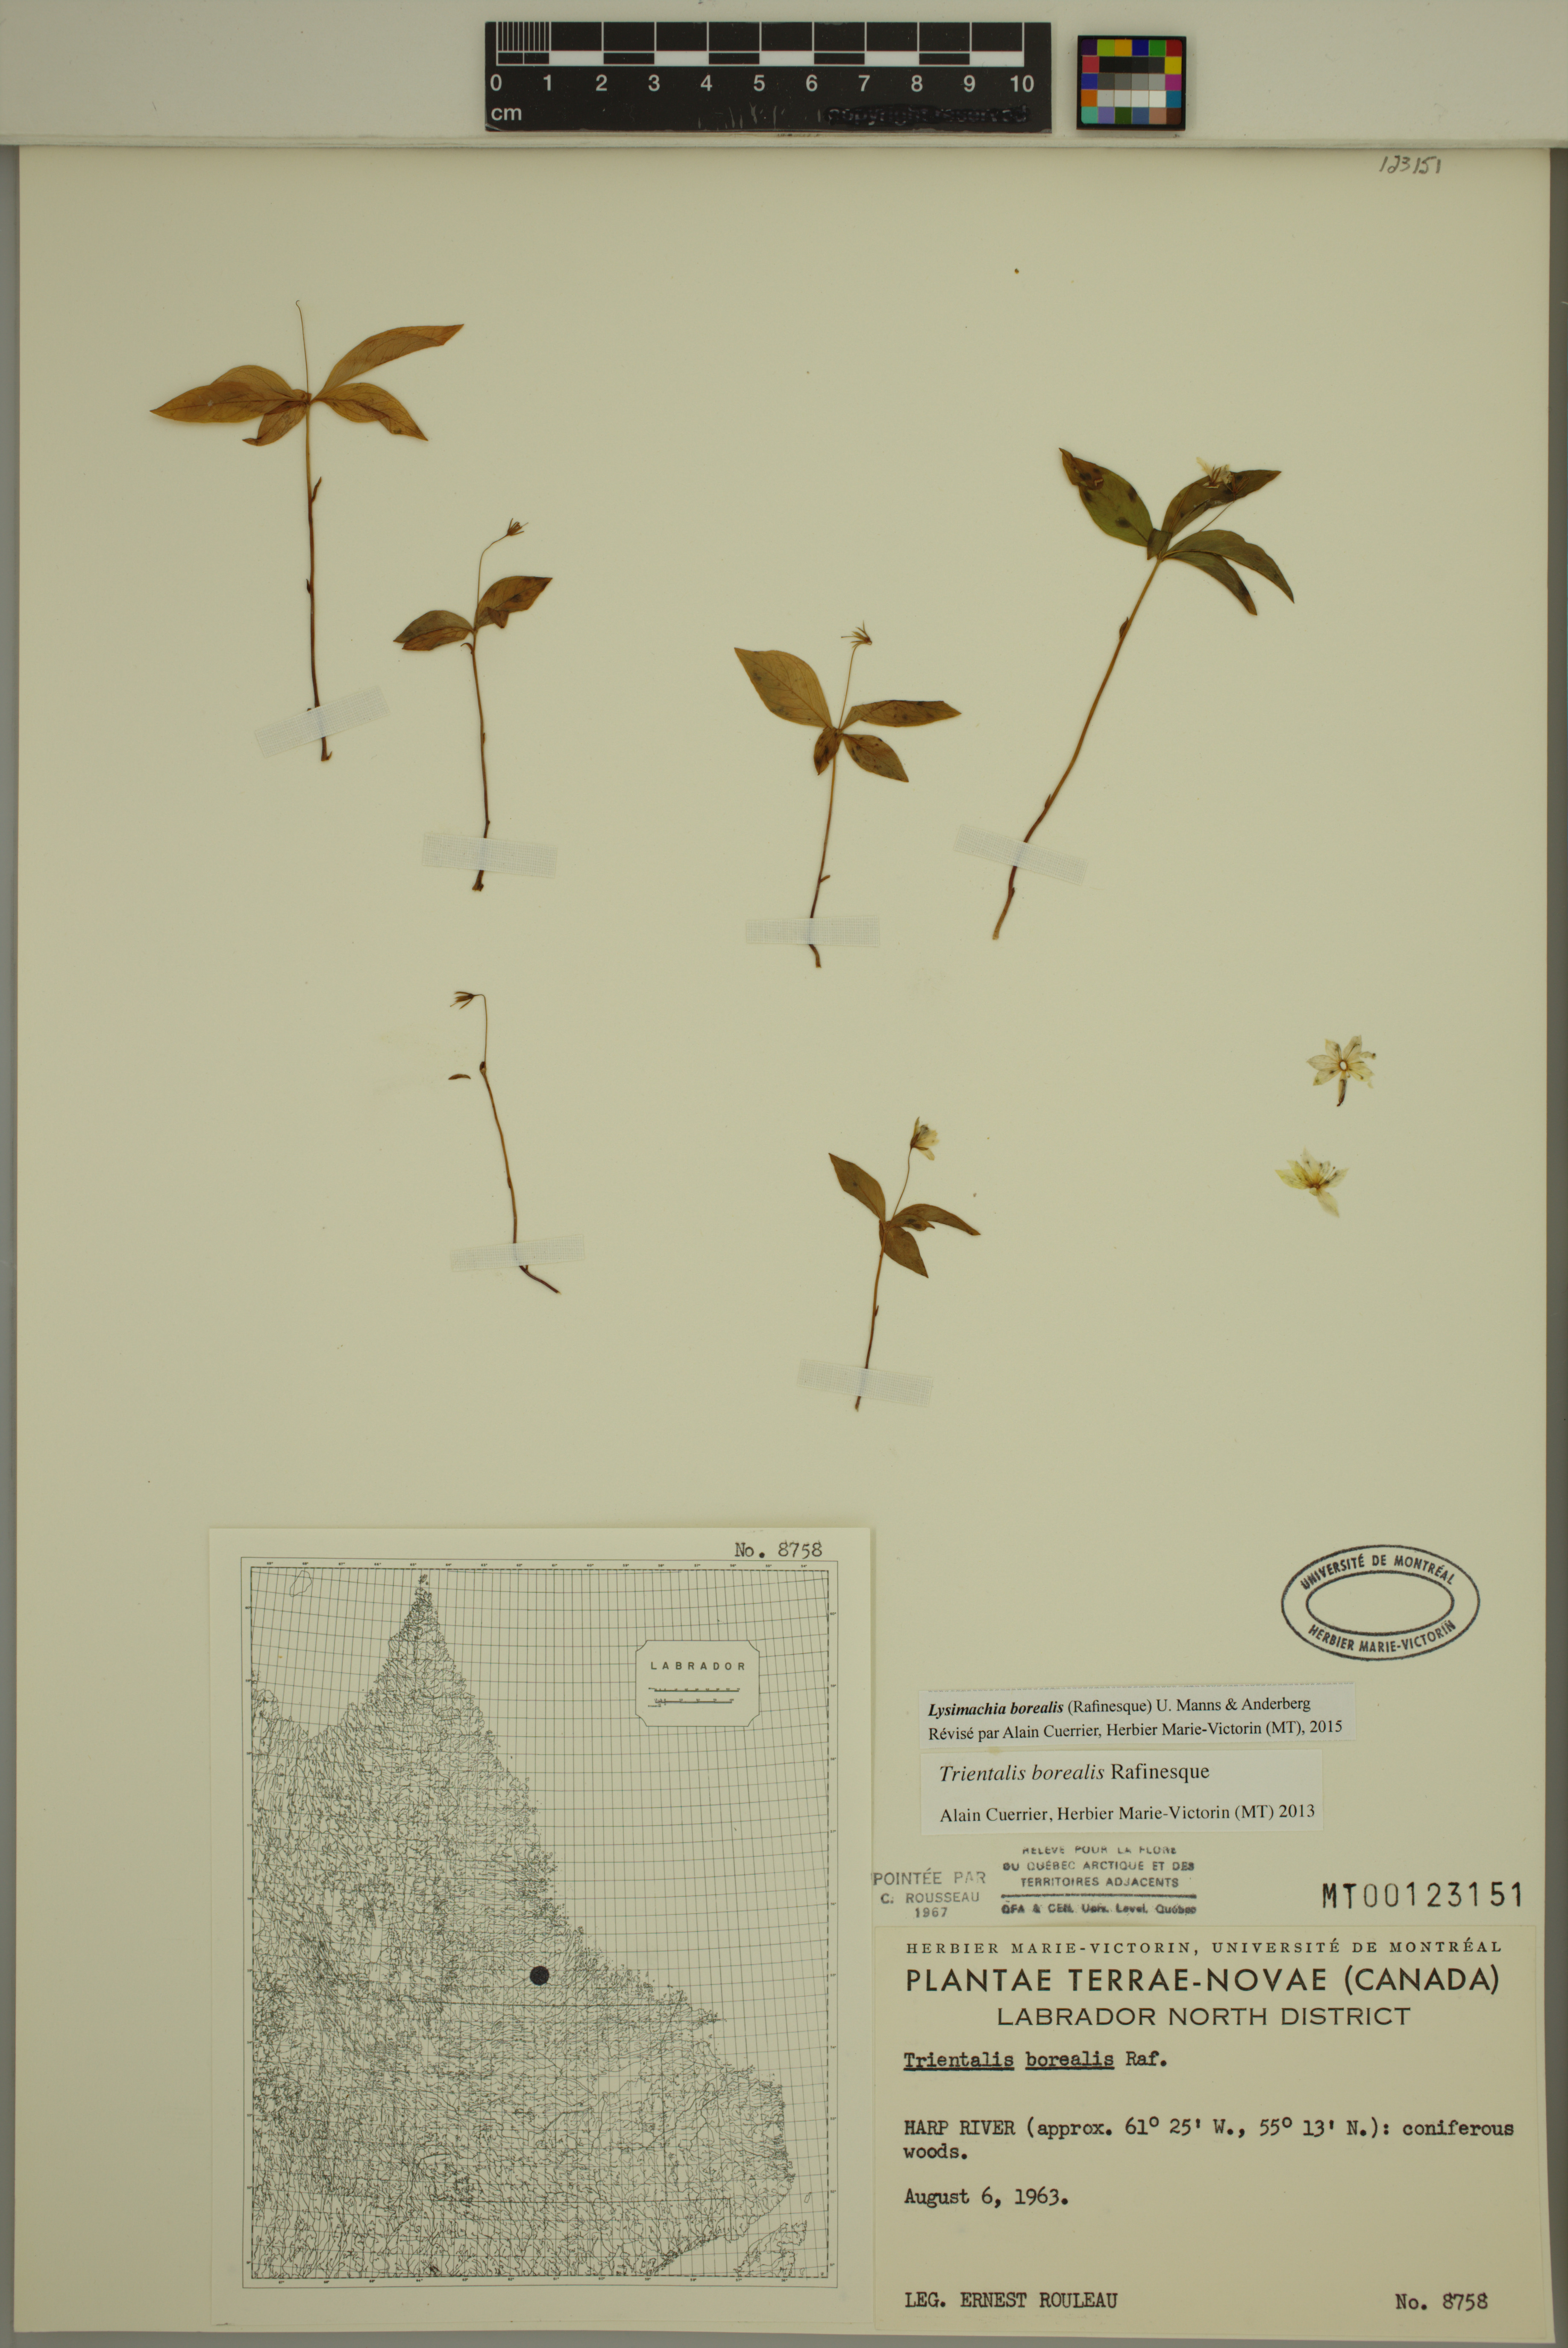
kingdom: Plantae
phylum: Tracheophyta
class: Magnoliopsida
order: Ericales
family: Primulaceae
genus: Lysimachia
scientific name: Lysimachia borealis
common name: American starflower
